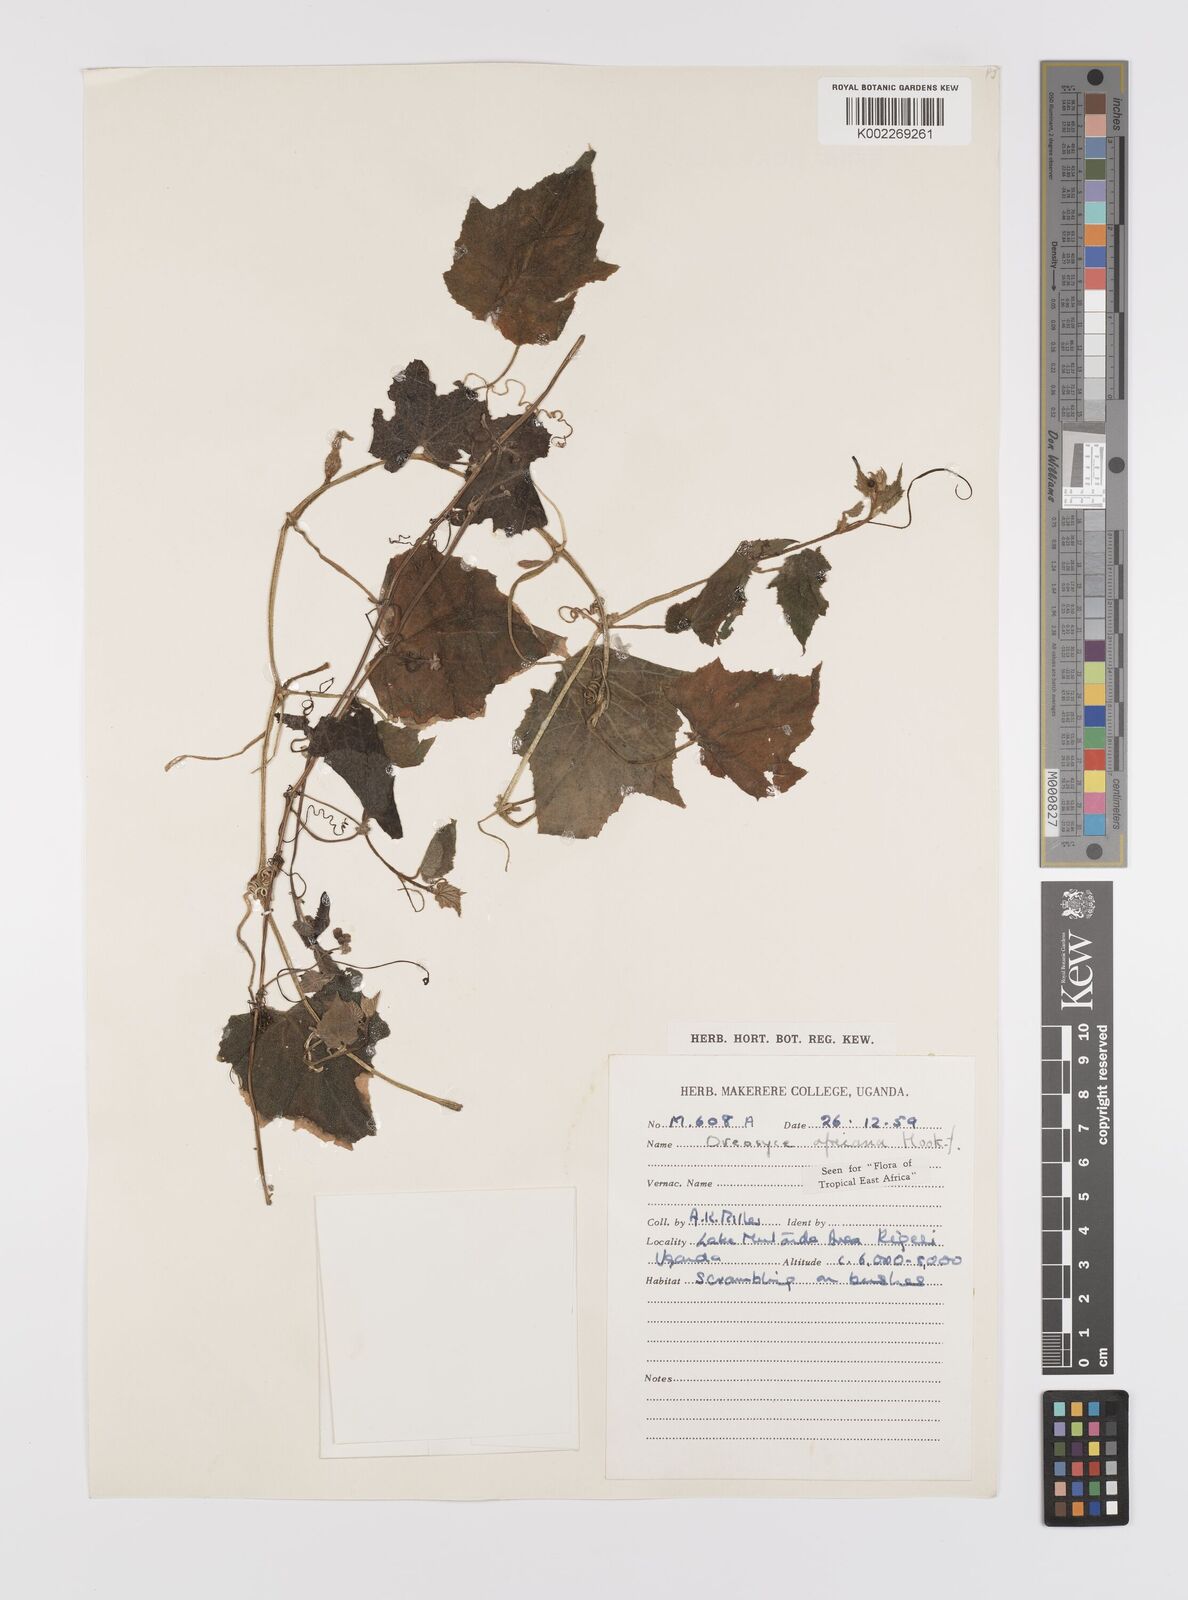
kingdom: Plantae
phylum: Tracheophyta
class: Magnoliopsida
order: Cucurbitales
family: Cucurbitaceae
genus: Cucumis
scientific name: Cucumis oreosyce
